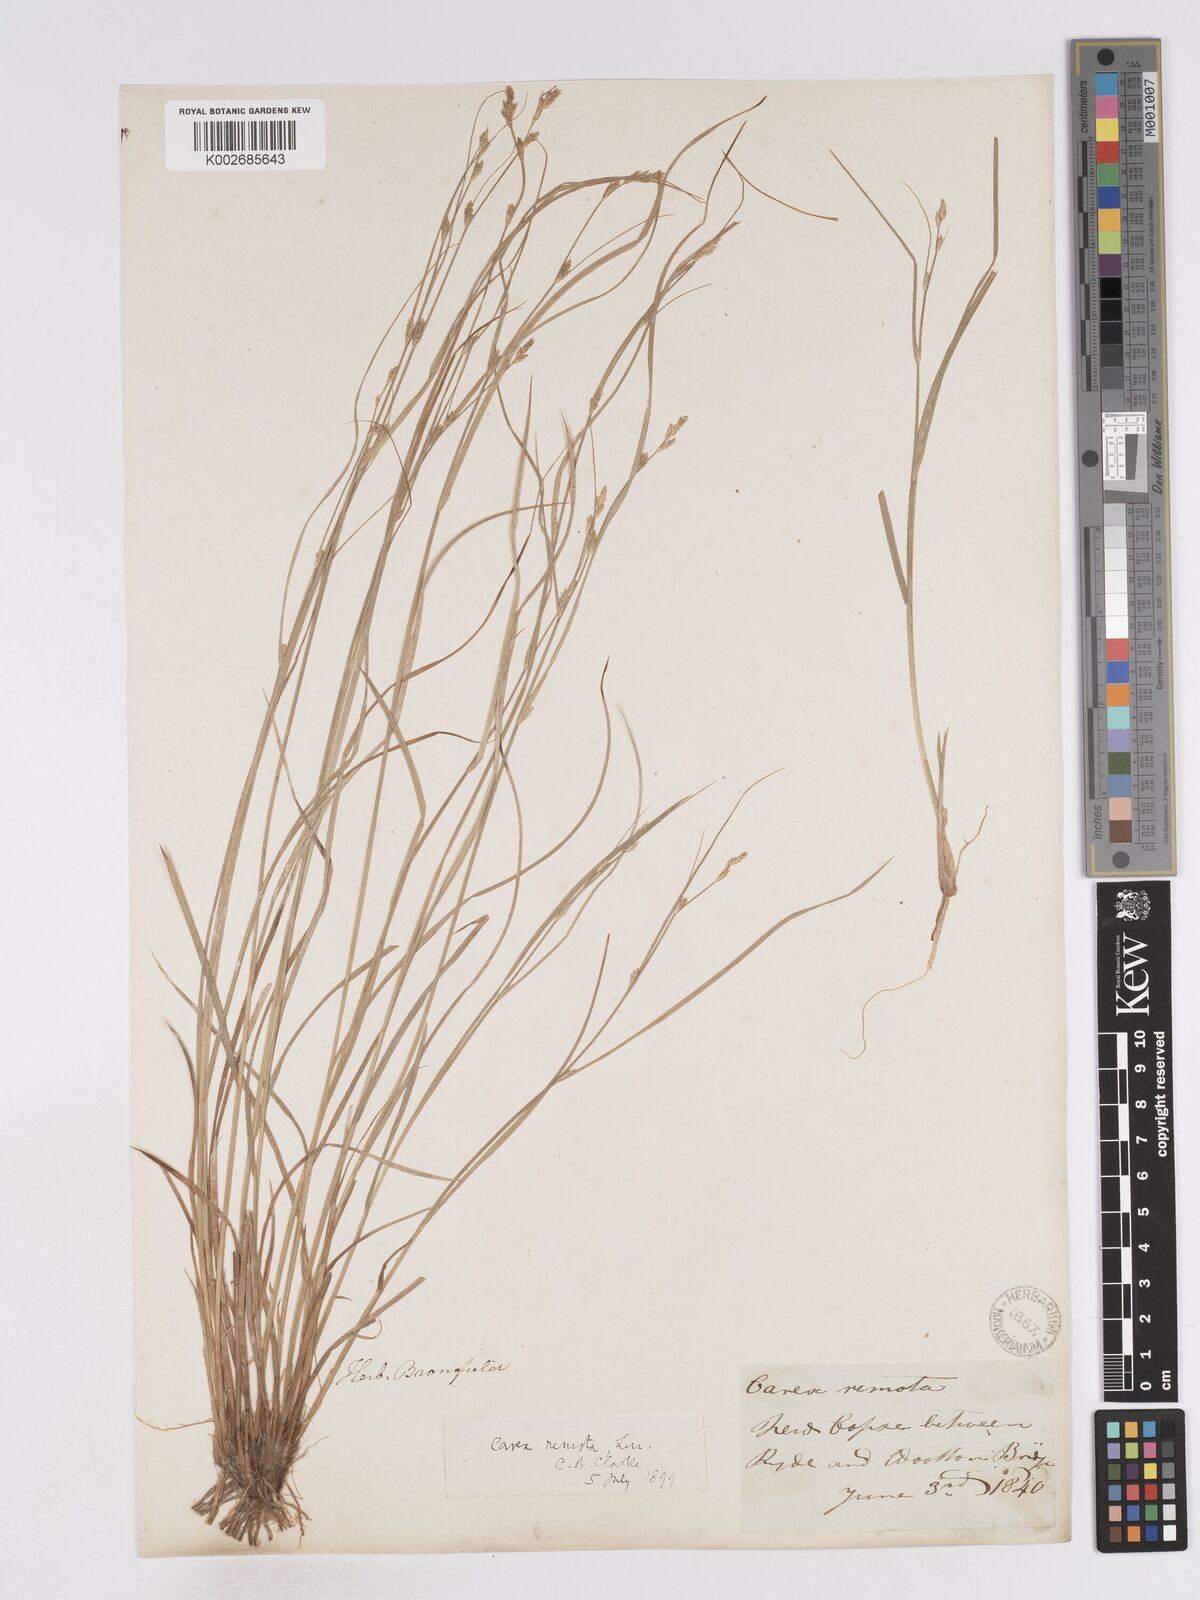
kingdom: Plantae
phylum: Tracheophyta
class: Liliopsida
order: Poales
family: Cyperaceae
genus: Carex
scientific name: Carex remota
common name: Remote sedge
